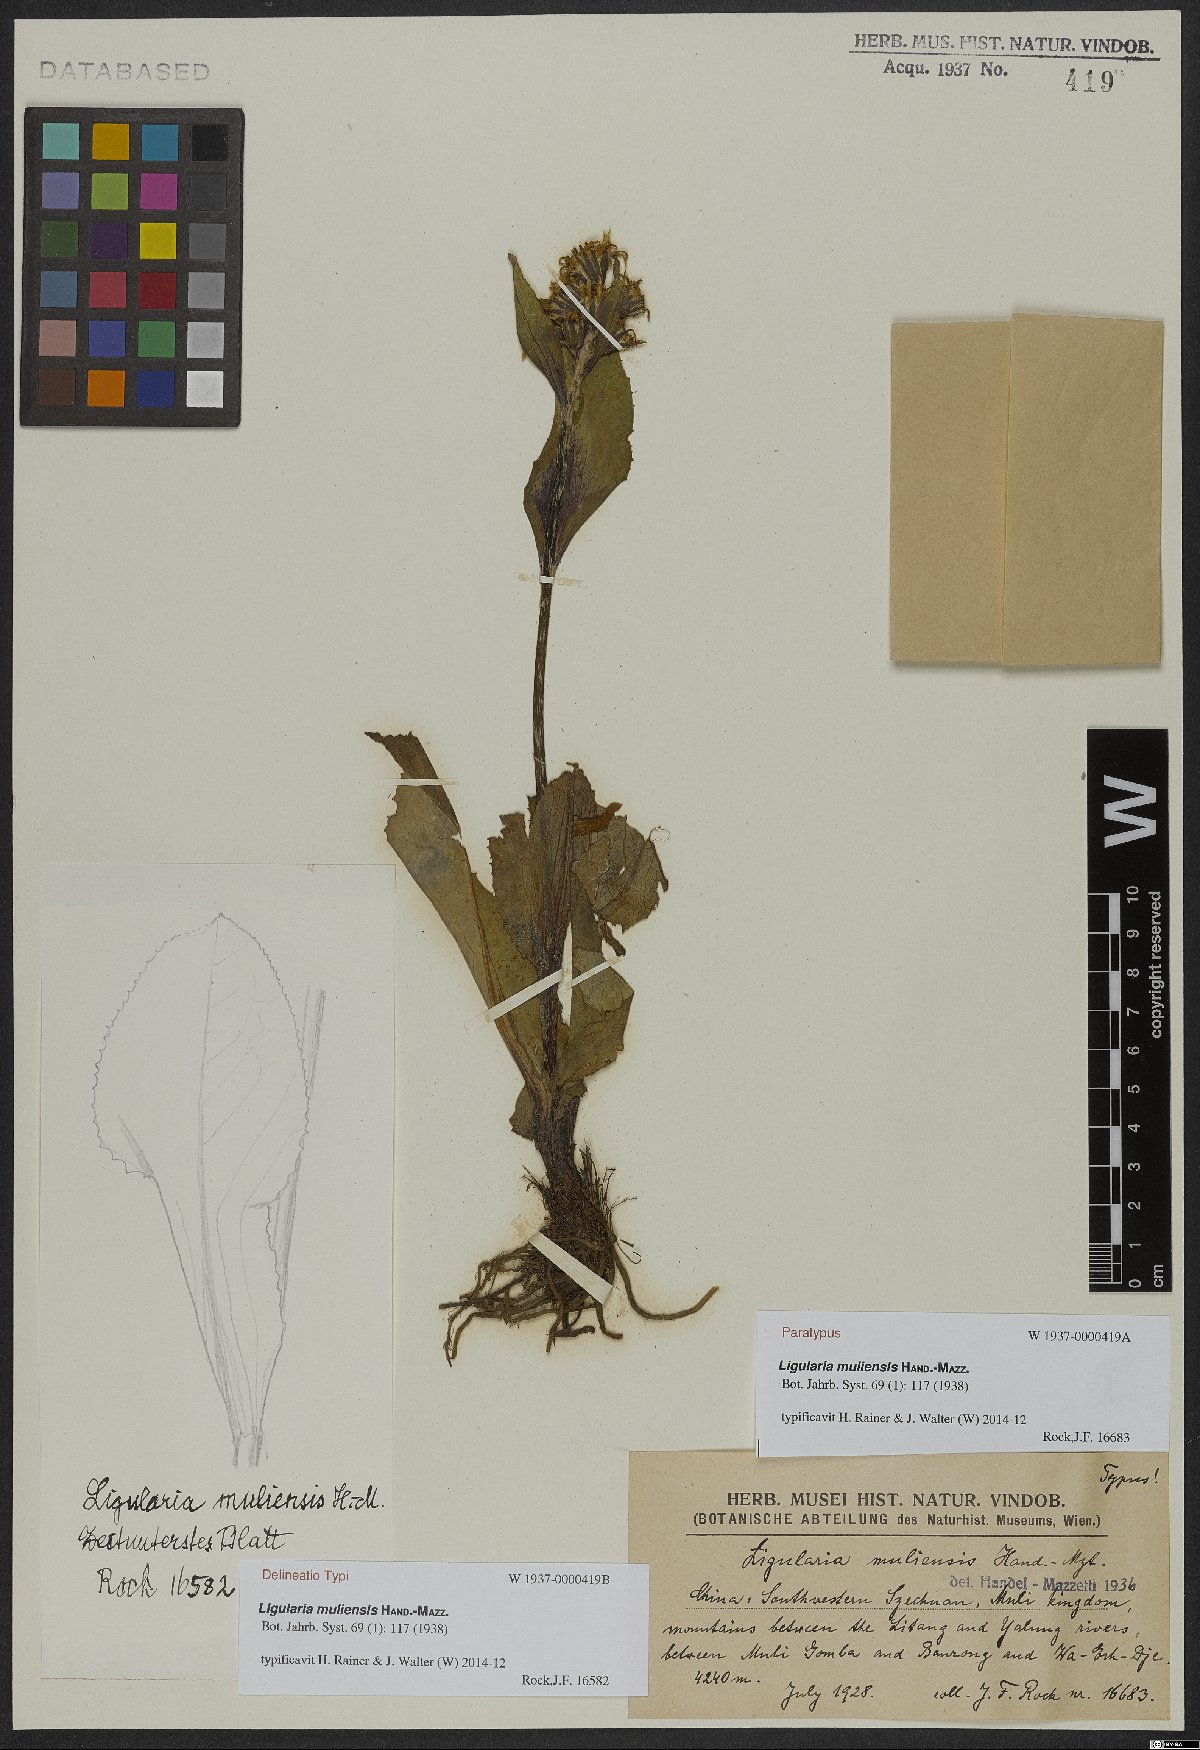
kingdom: Plantae
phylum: Tracheophyta
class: Magnoliopsida
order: Asterales
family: Asteraceae
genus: Ligularia
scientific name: Ligularia muliensis
